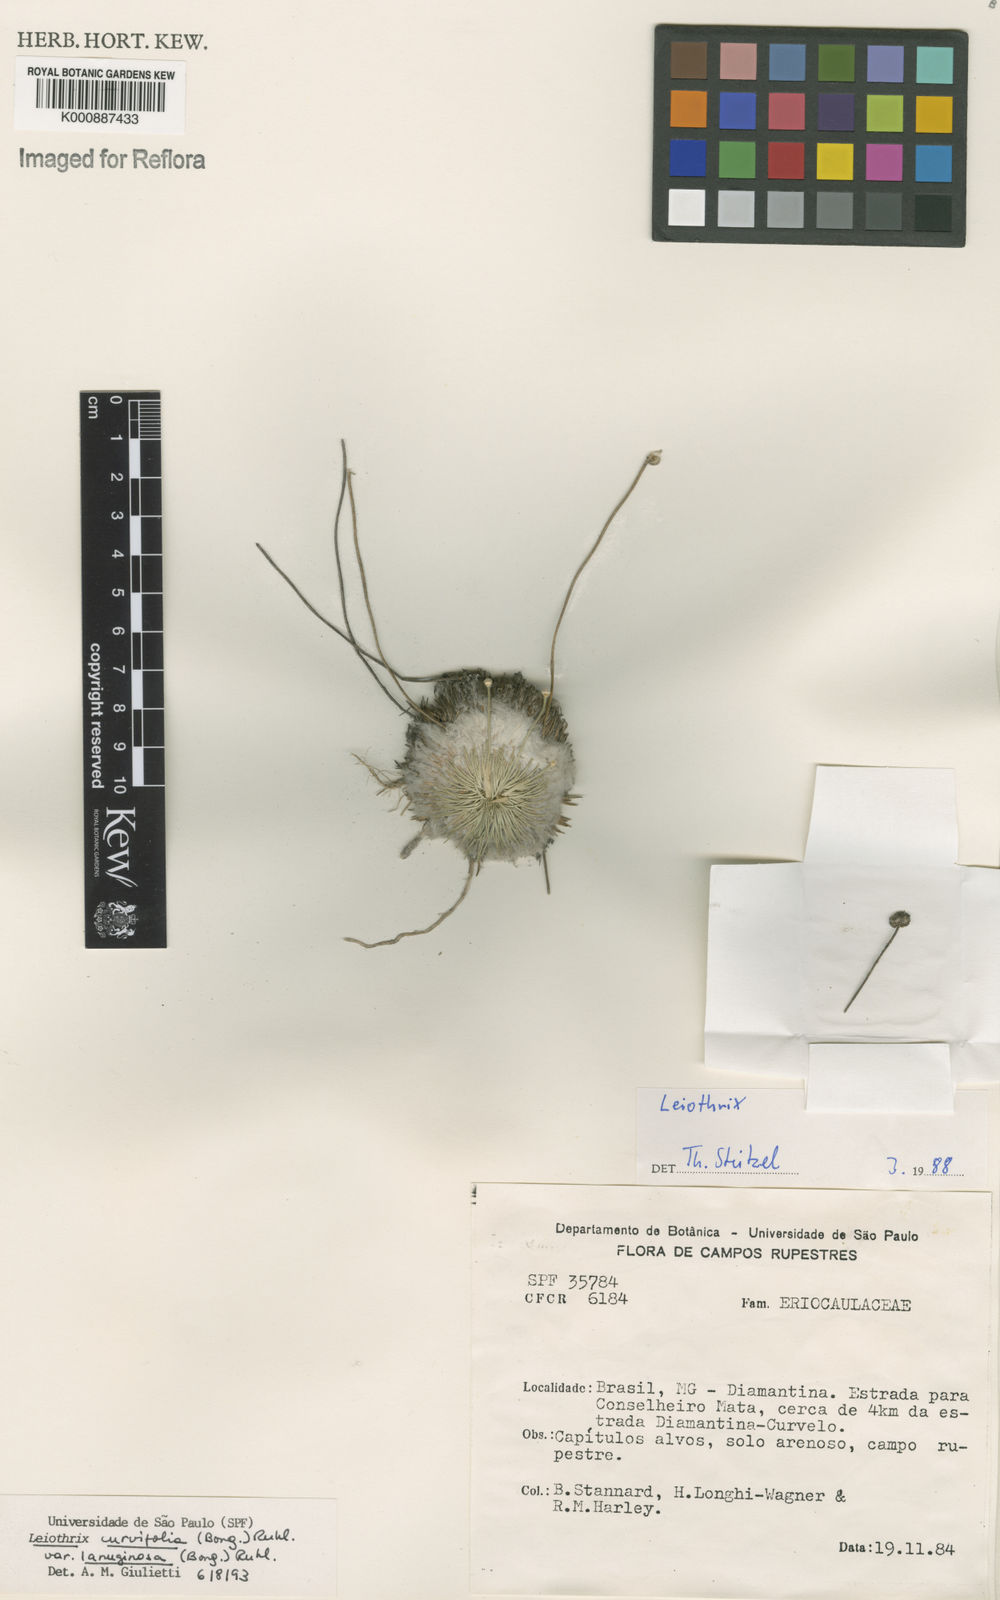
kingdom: Plantae
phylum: Tracheophyta
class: Liliopsida
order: Poales
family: Eriocaulaceae
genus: Leiothrix
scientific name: Leiothrix curvifolia
